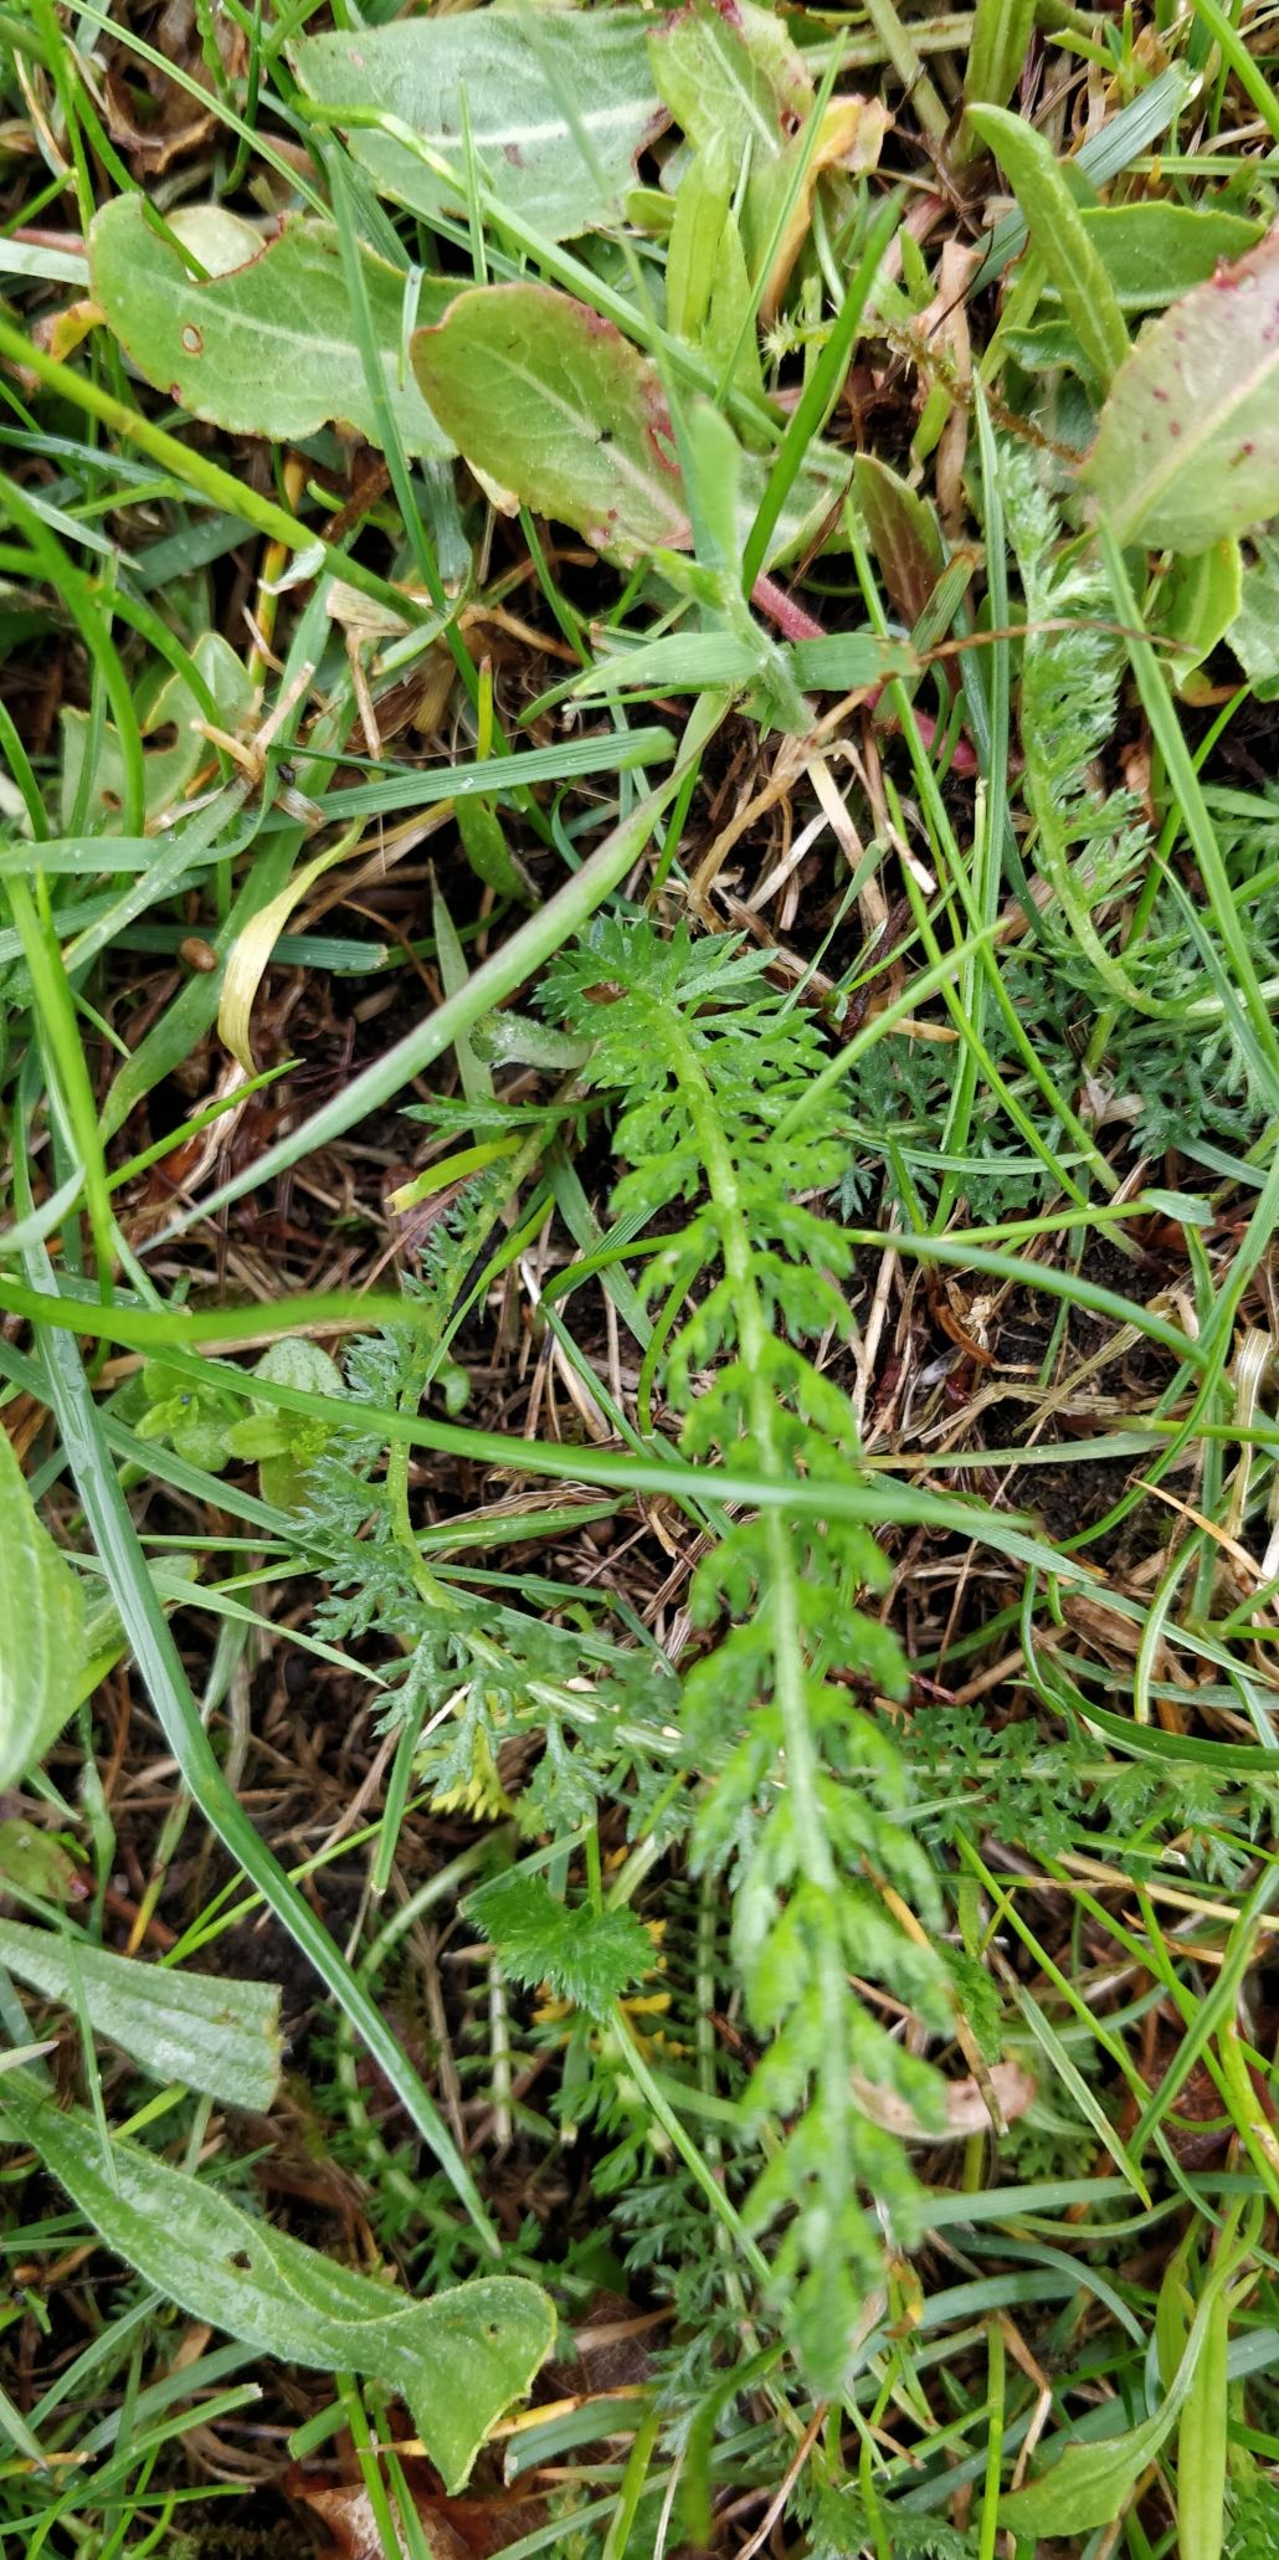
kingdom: Plantae
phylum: Tracheophyta
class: Magnoliopsida
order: Asterales
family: Asteraceae
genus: Achillea
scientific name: Achillea millefolium
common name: Almindelig røllike
